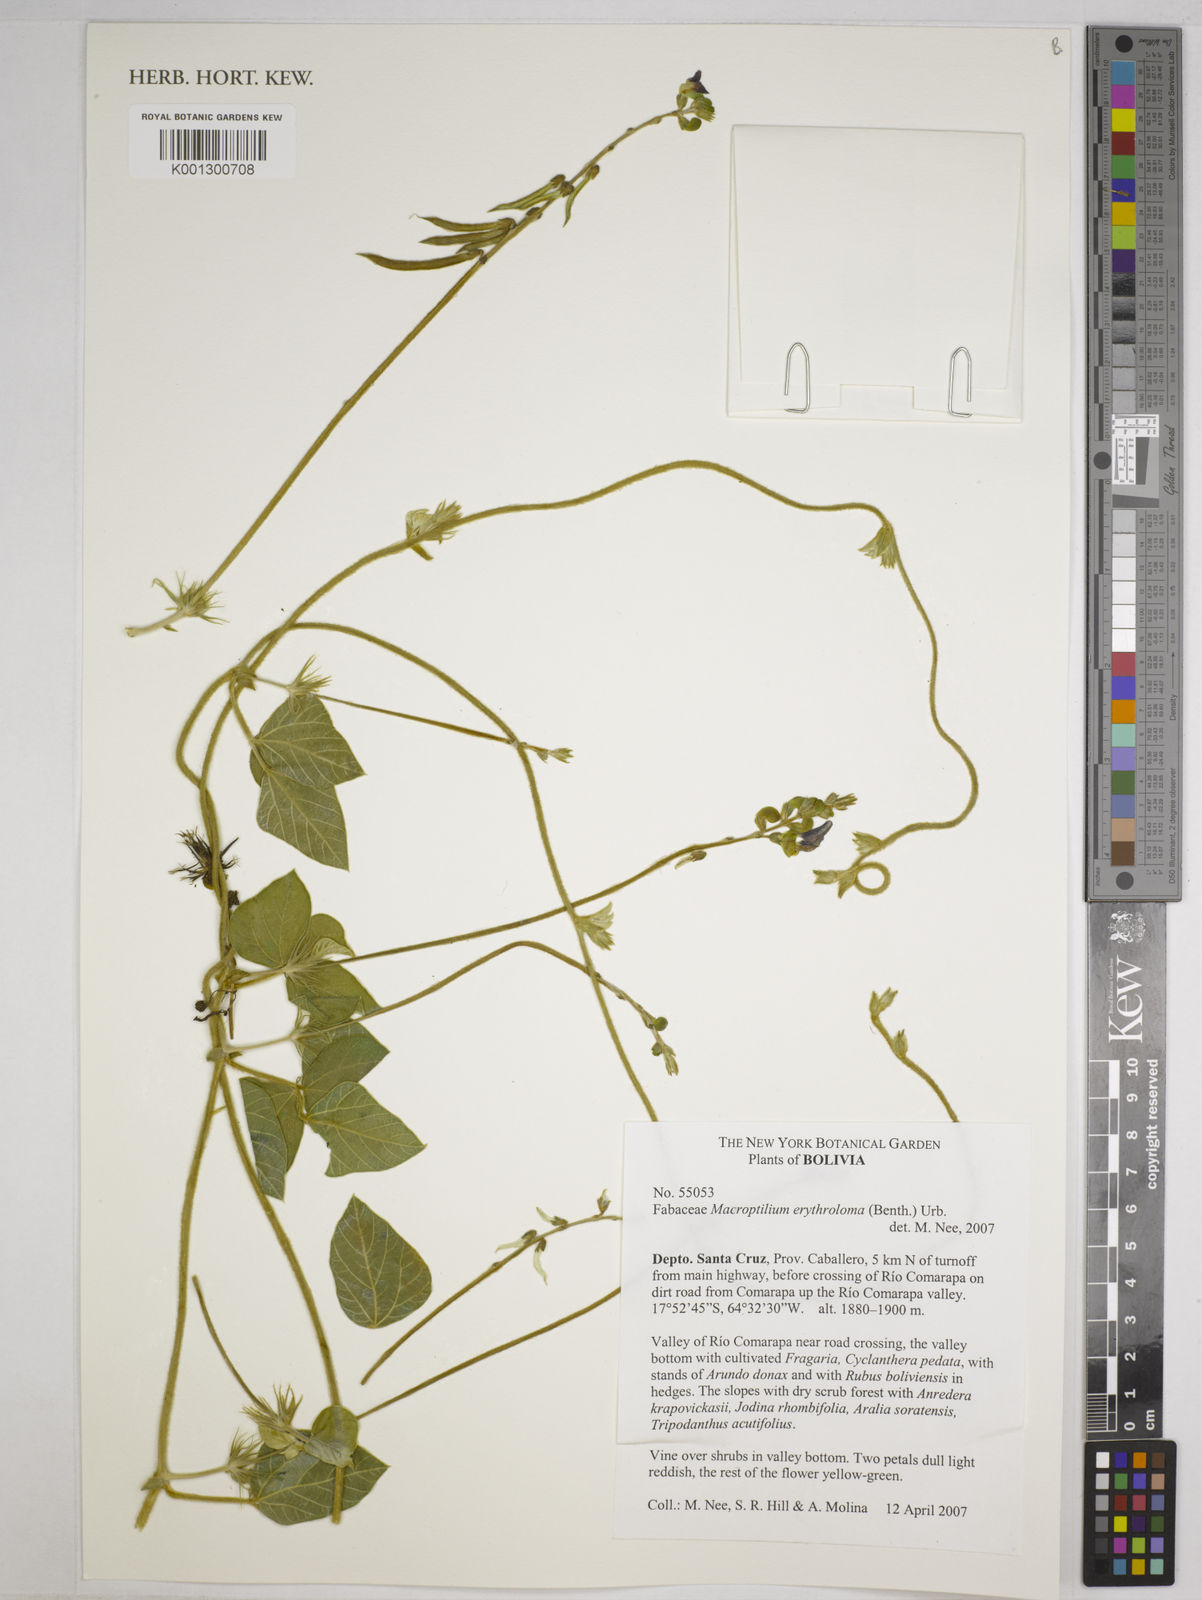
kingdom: Plantae
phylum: Tracheophyta
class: Magnoliopsida
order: Fabales
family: Fabaceae
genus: Macroptilium
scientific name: Macroptilium erythroloma
